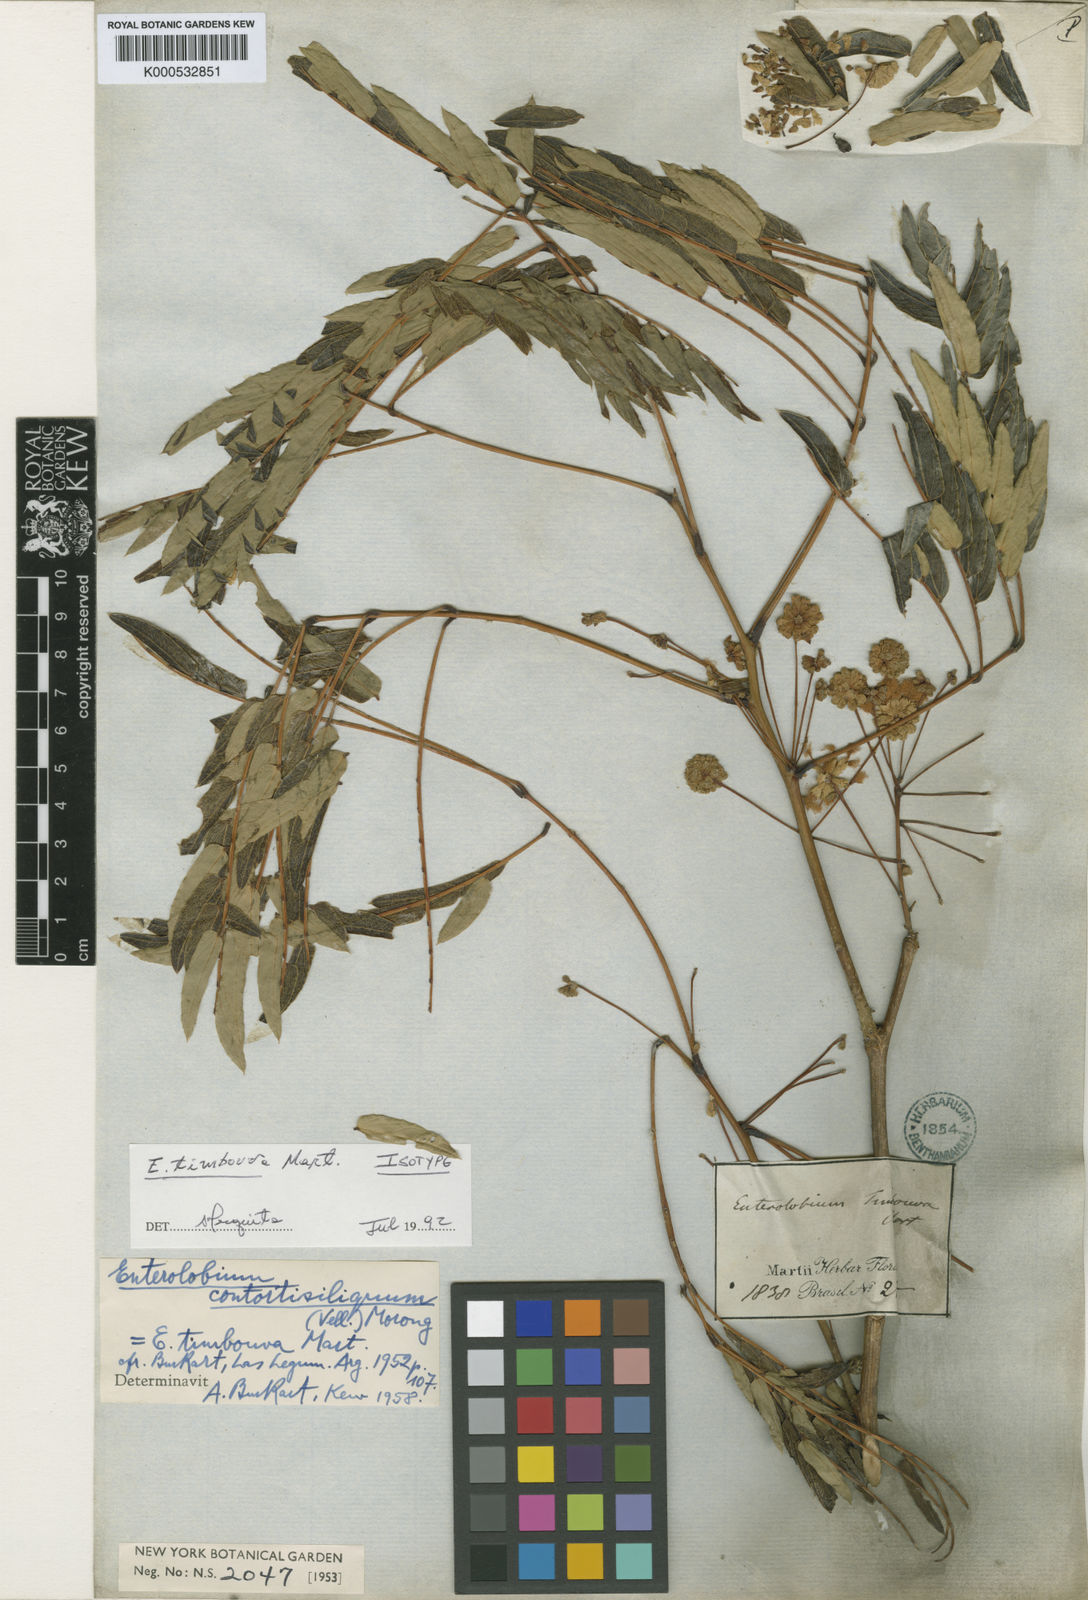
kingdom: Plantae
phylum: Tracheophyta
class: Magnoliopsida
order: Fabales
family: Fabaceae
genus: Enterolobium
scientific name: Enterolobium timbouva
